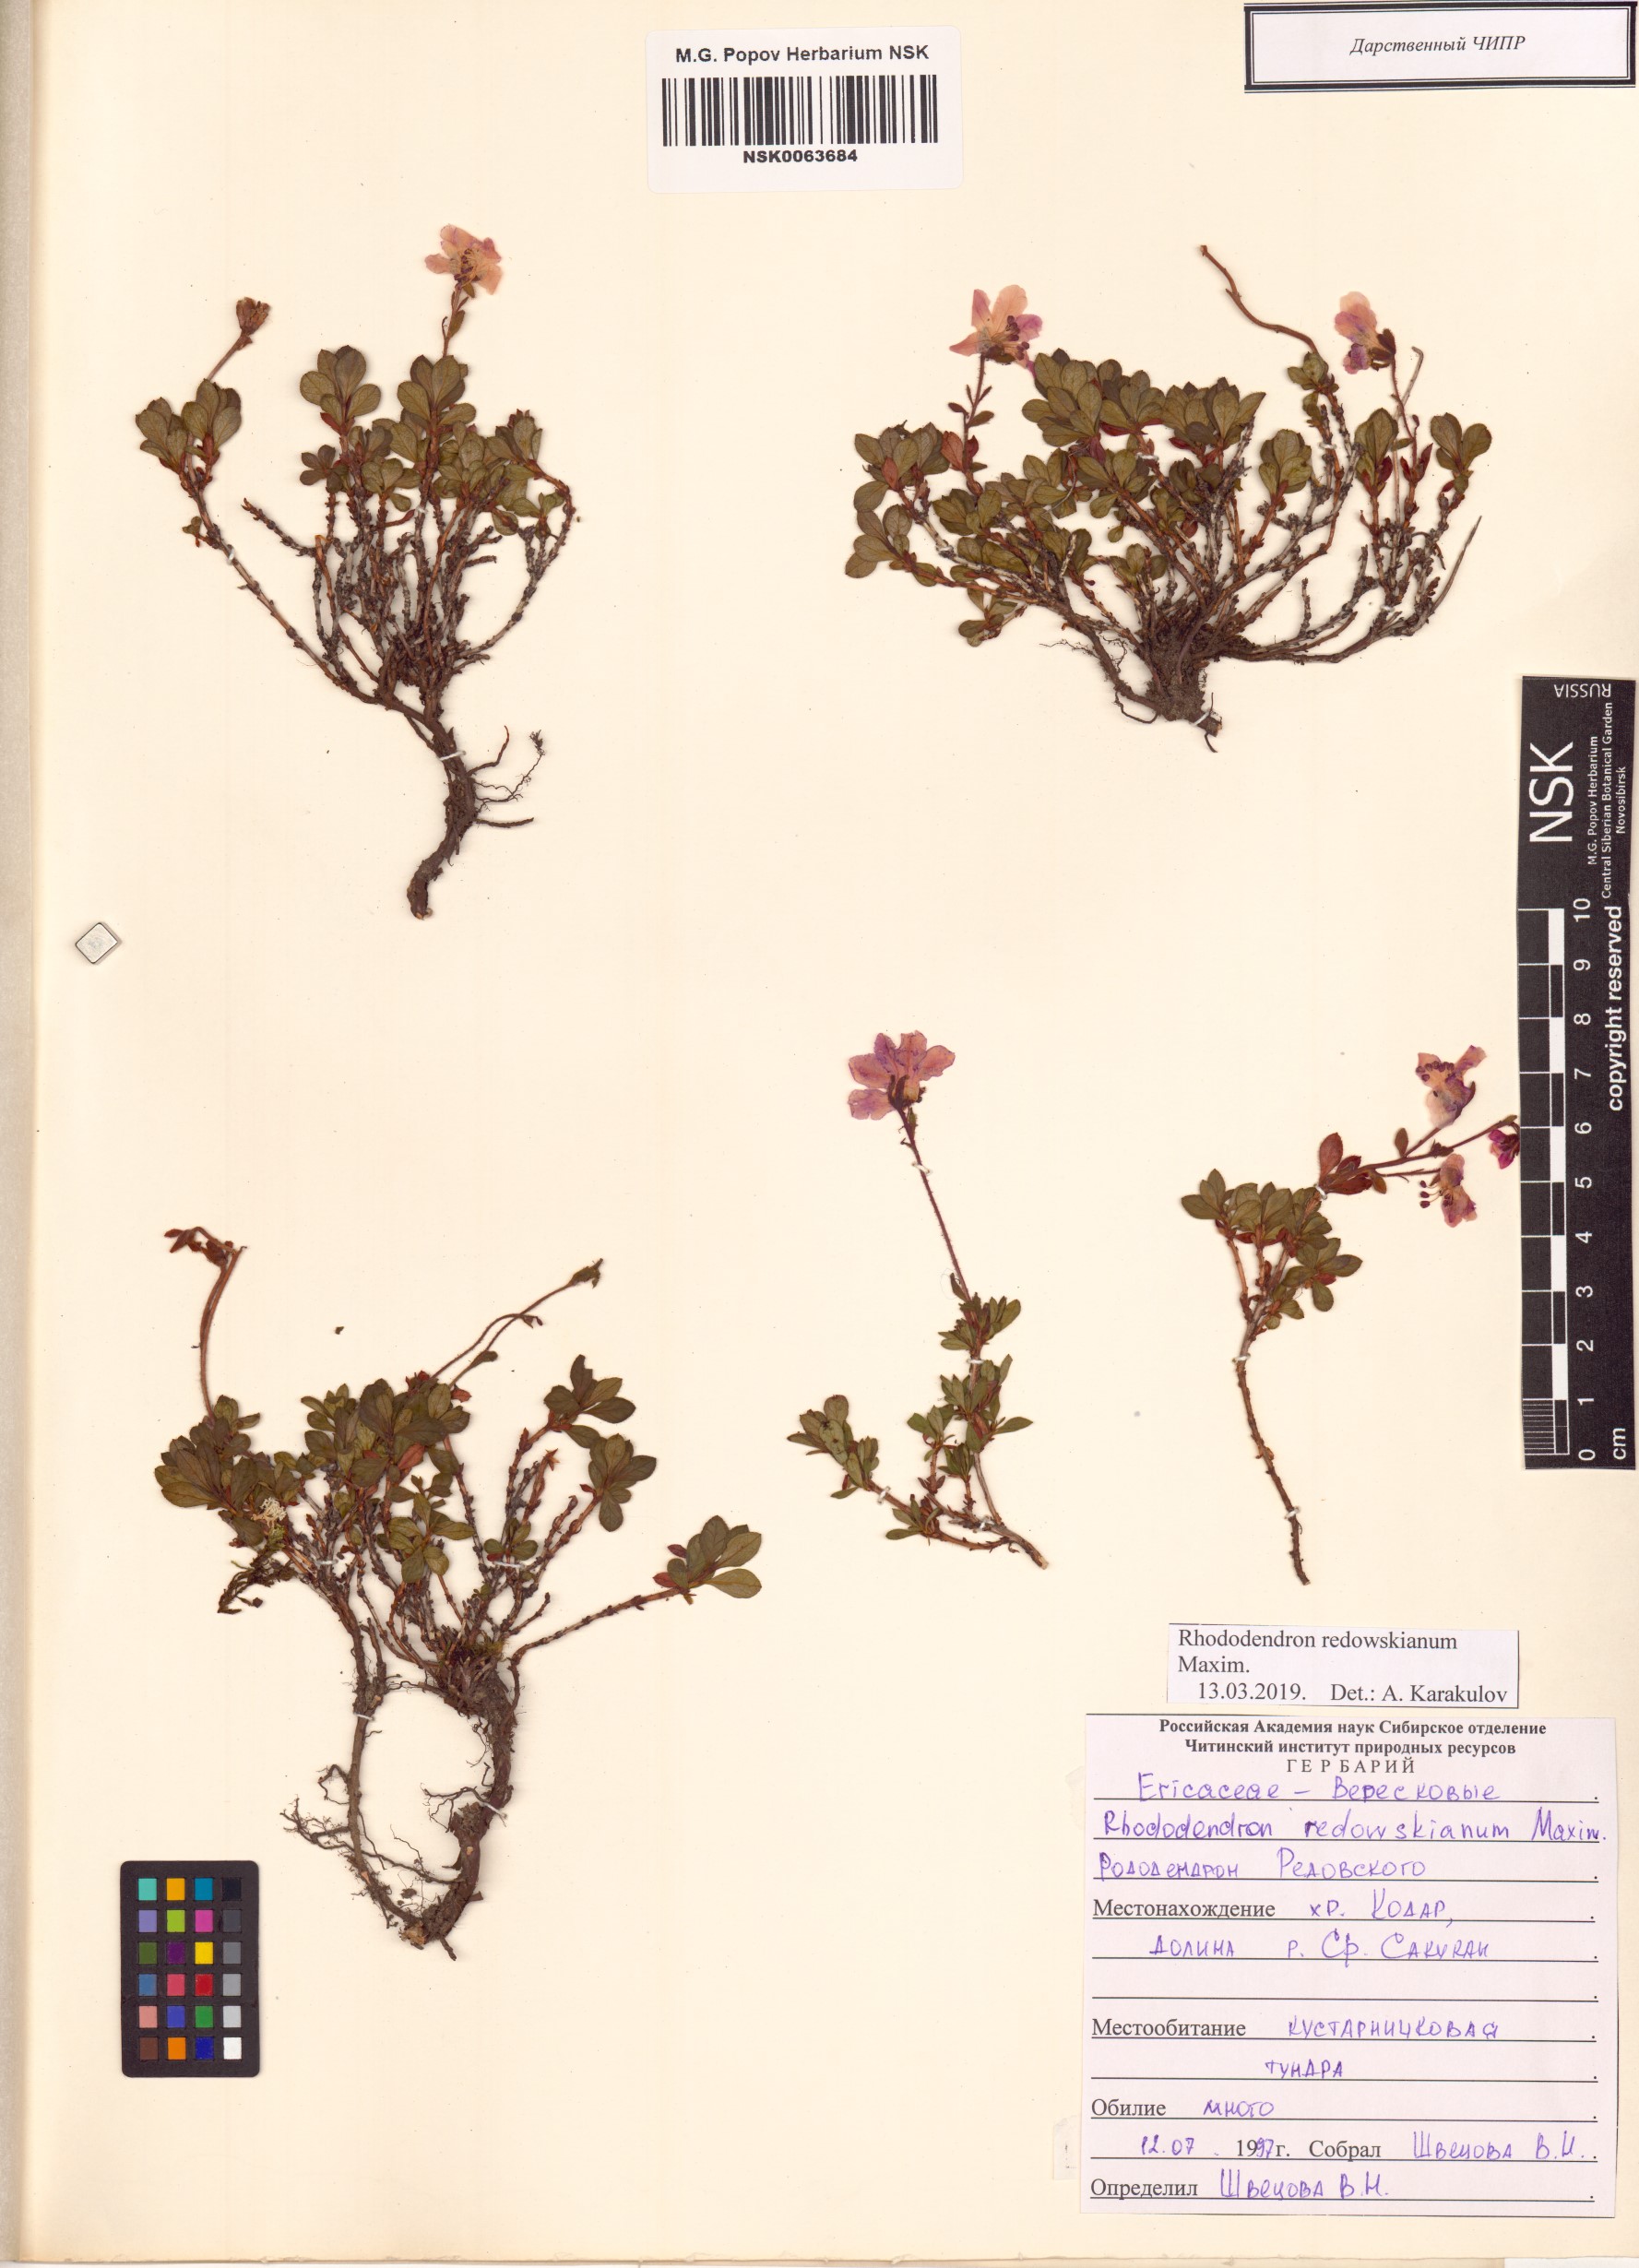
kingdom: Plantae
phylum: Tracheophyta
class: Magnoliopsida
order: Ericales
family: Ericaceae
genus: Rhododendron
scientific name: Rhododendron redowskianum
